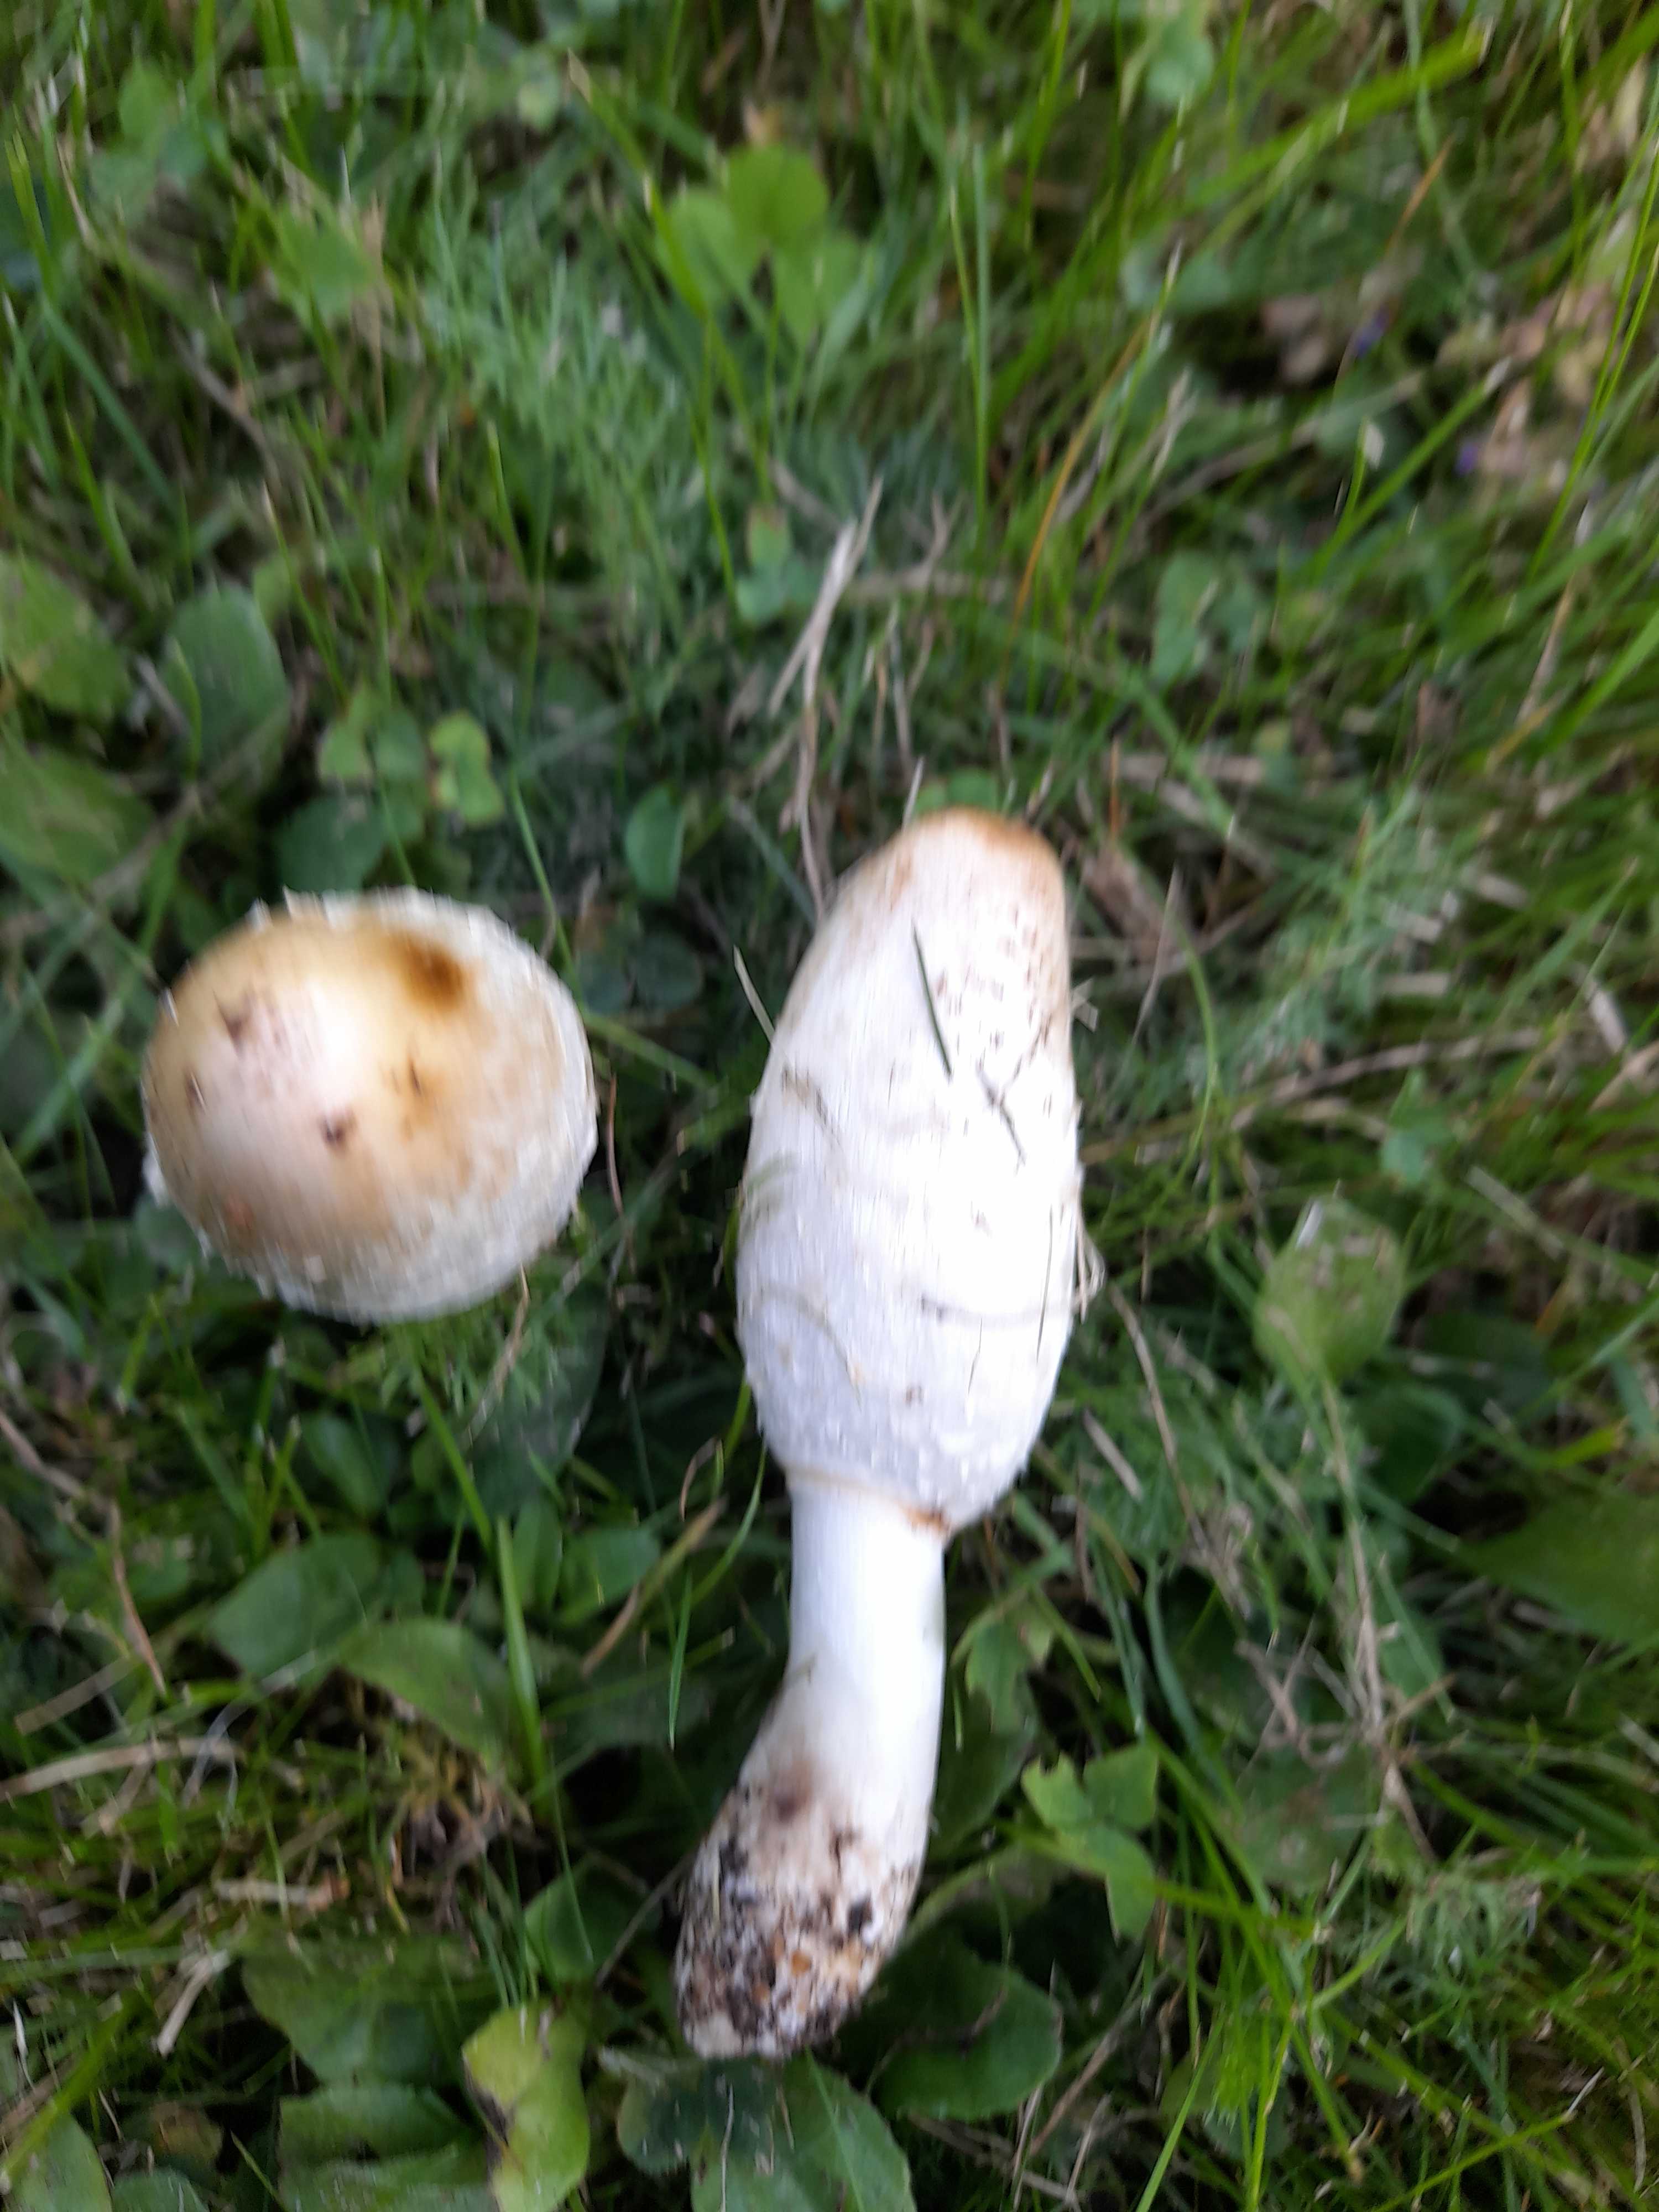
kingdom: Fungi
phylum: Basidiomycota
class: Agaricomycetes
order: Agaricales
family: Agaricaceae
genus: Coprinus
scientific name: Coprinus comatus
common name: stor parykhat
